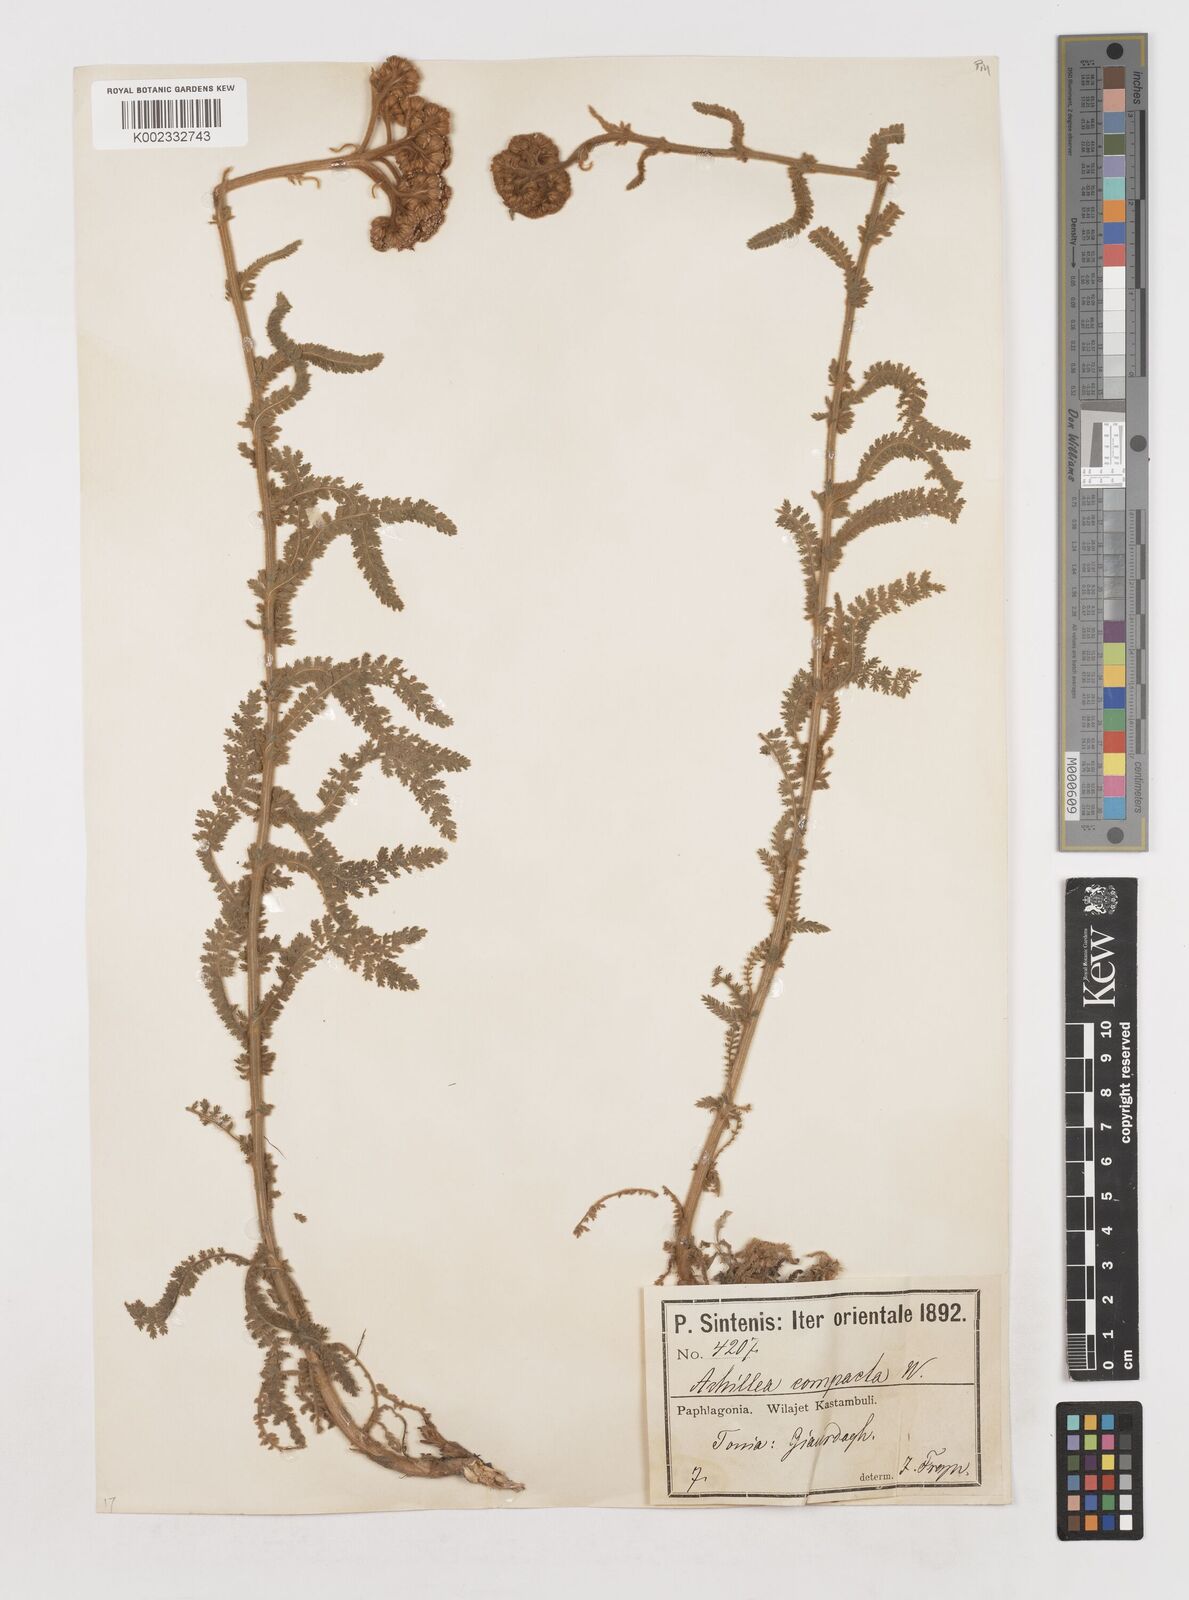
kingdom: Plantae
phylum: Tracheophyta
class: Magnoliopsida
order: Asterales
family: Asteraceae
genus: Achillea
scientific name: Achillea coarctata
